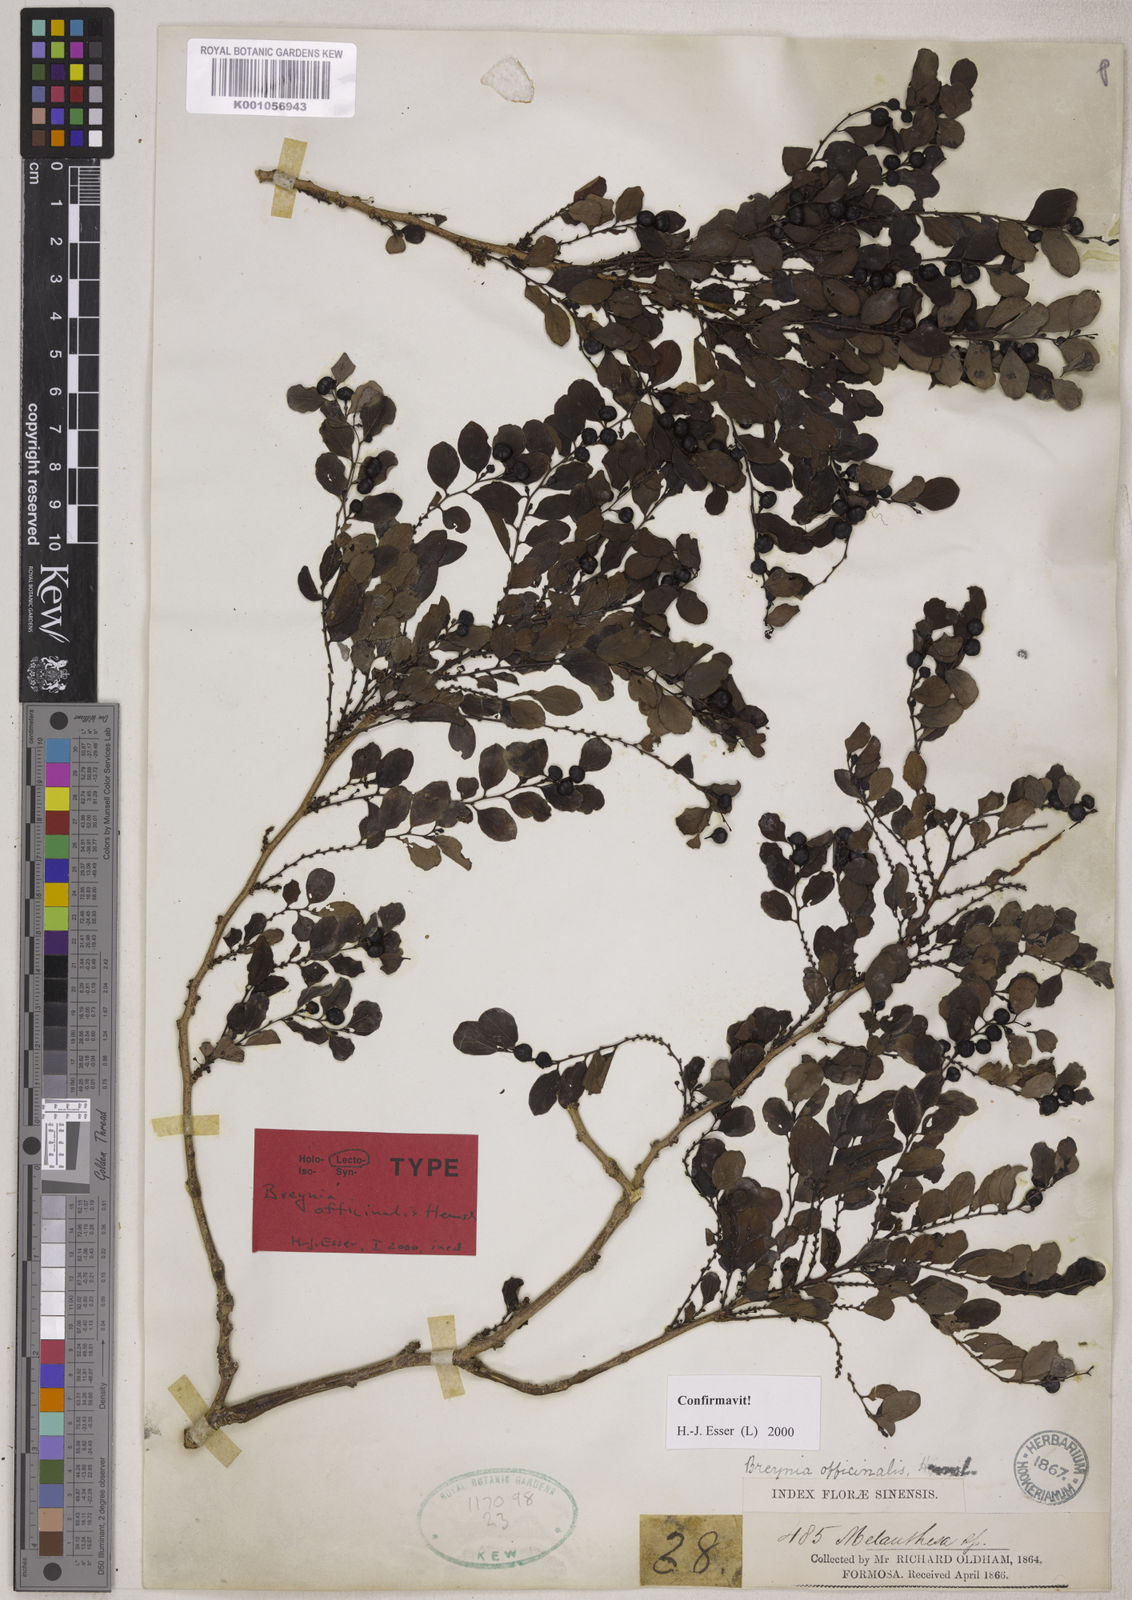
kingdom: Plantae
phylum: Tracheophyta
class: Magnoliopsida
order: Malpighiales
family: Phyllanthaceae
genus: Breynia
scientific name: Breynia vitis-idaea
